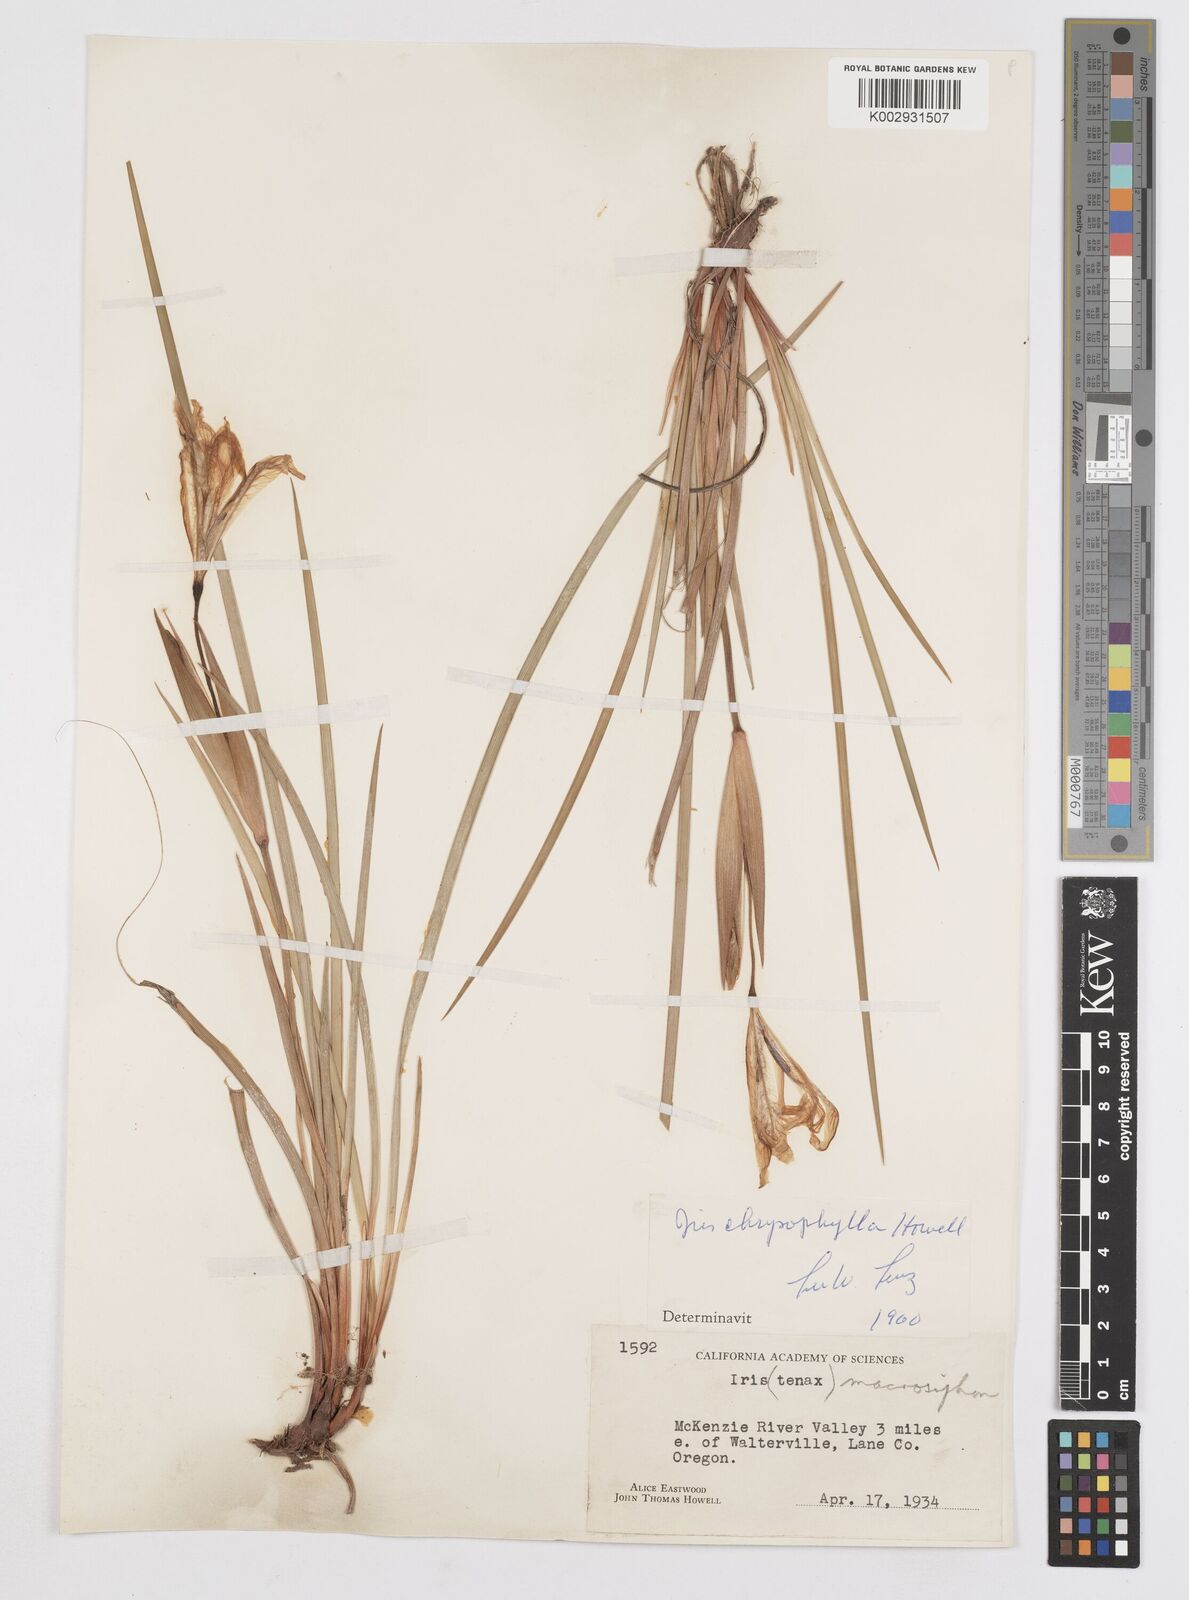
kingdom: Plantae
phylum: Tracheophyta
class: Liliopsida
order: Asparagales
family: Iridaceae
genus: Iris
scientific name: Iris chrysophylla
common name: Yellow-leaf iris
